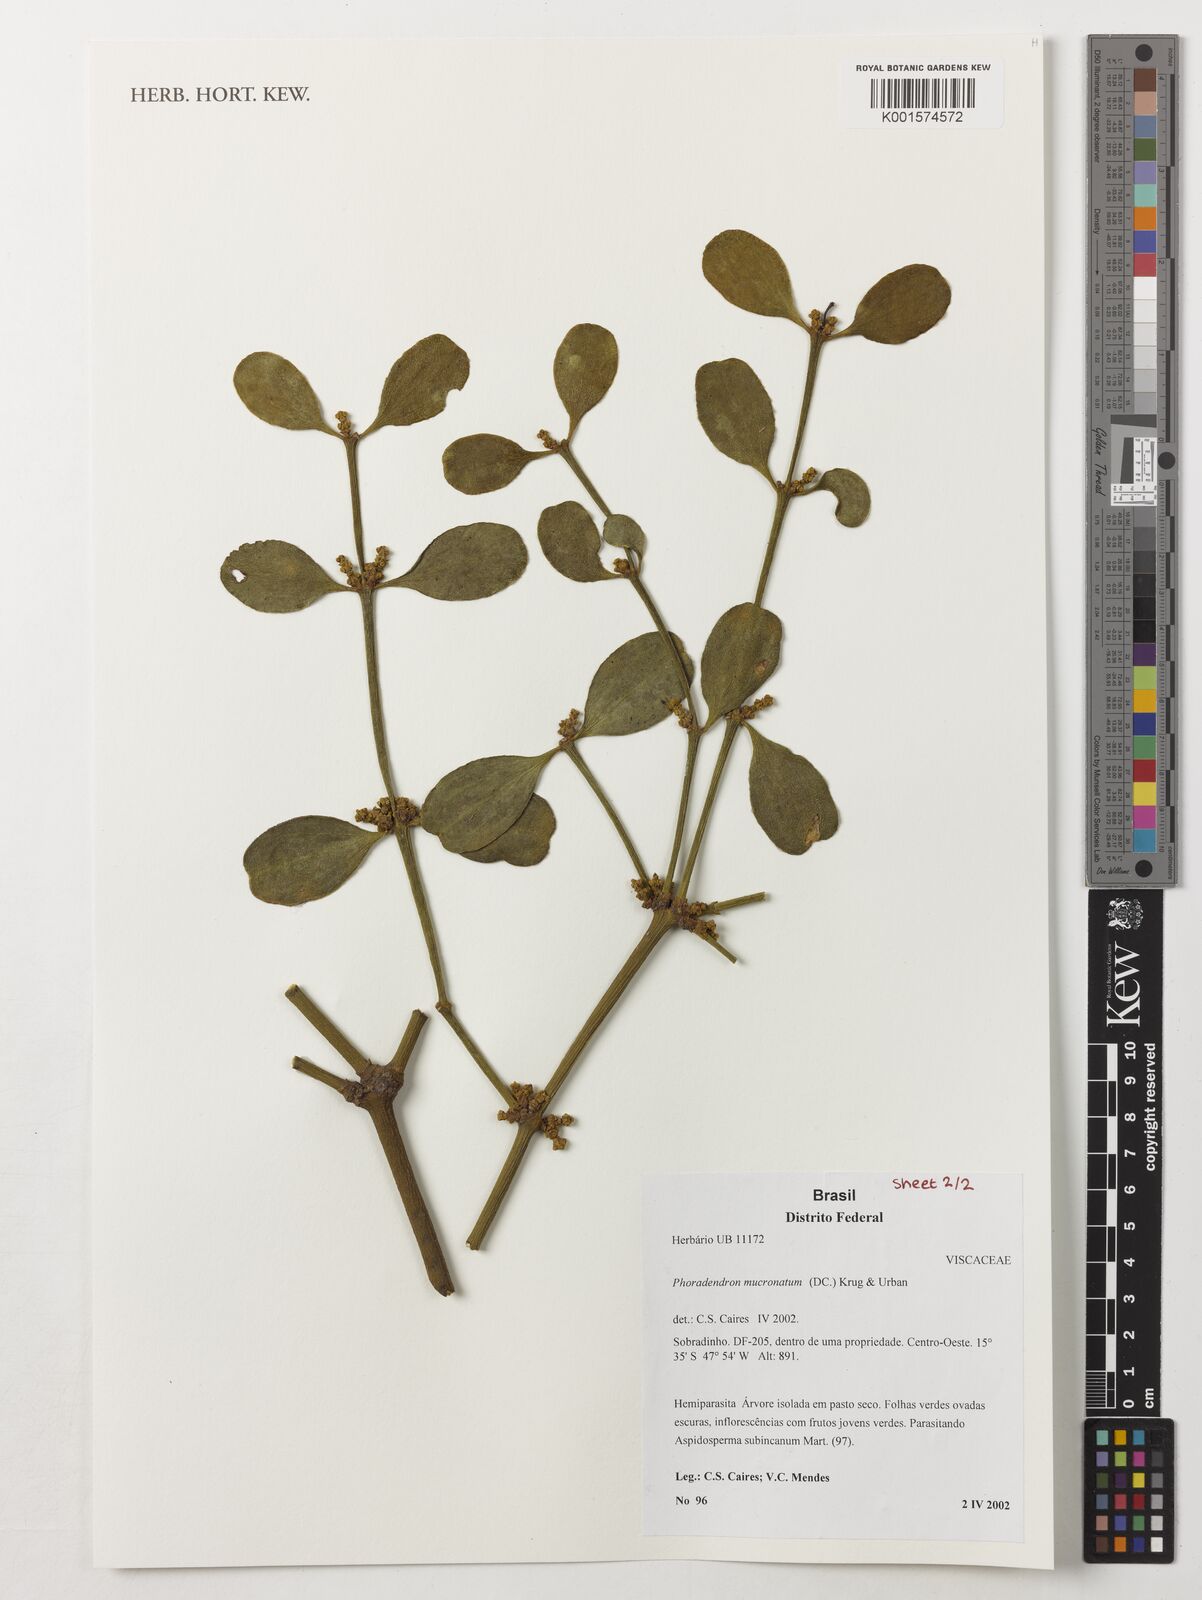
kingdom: Plantae
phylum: Tracheophyta
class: Magnoliopsida
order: Santalales
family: Viscaceae
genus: Phoradendron
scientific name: Phoradendron mucronatum
